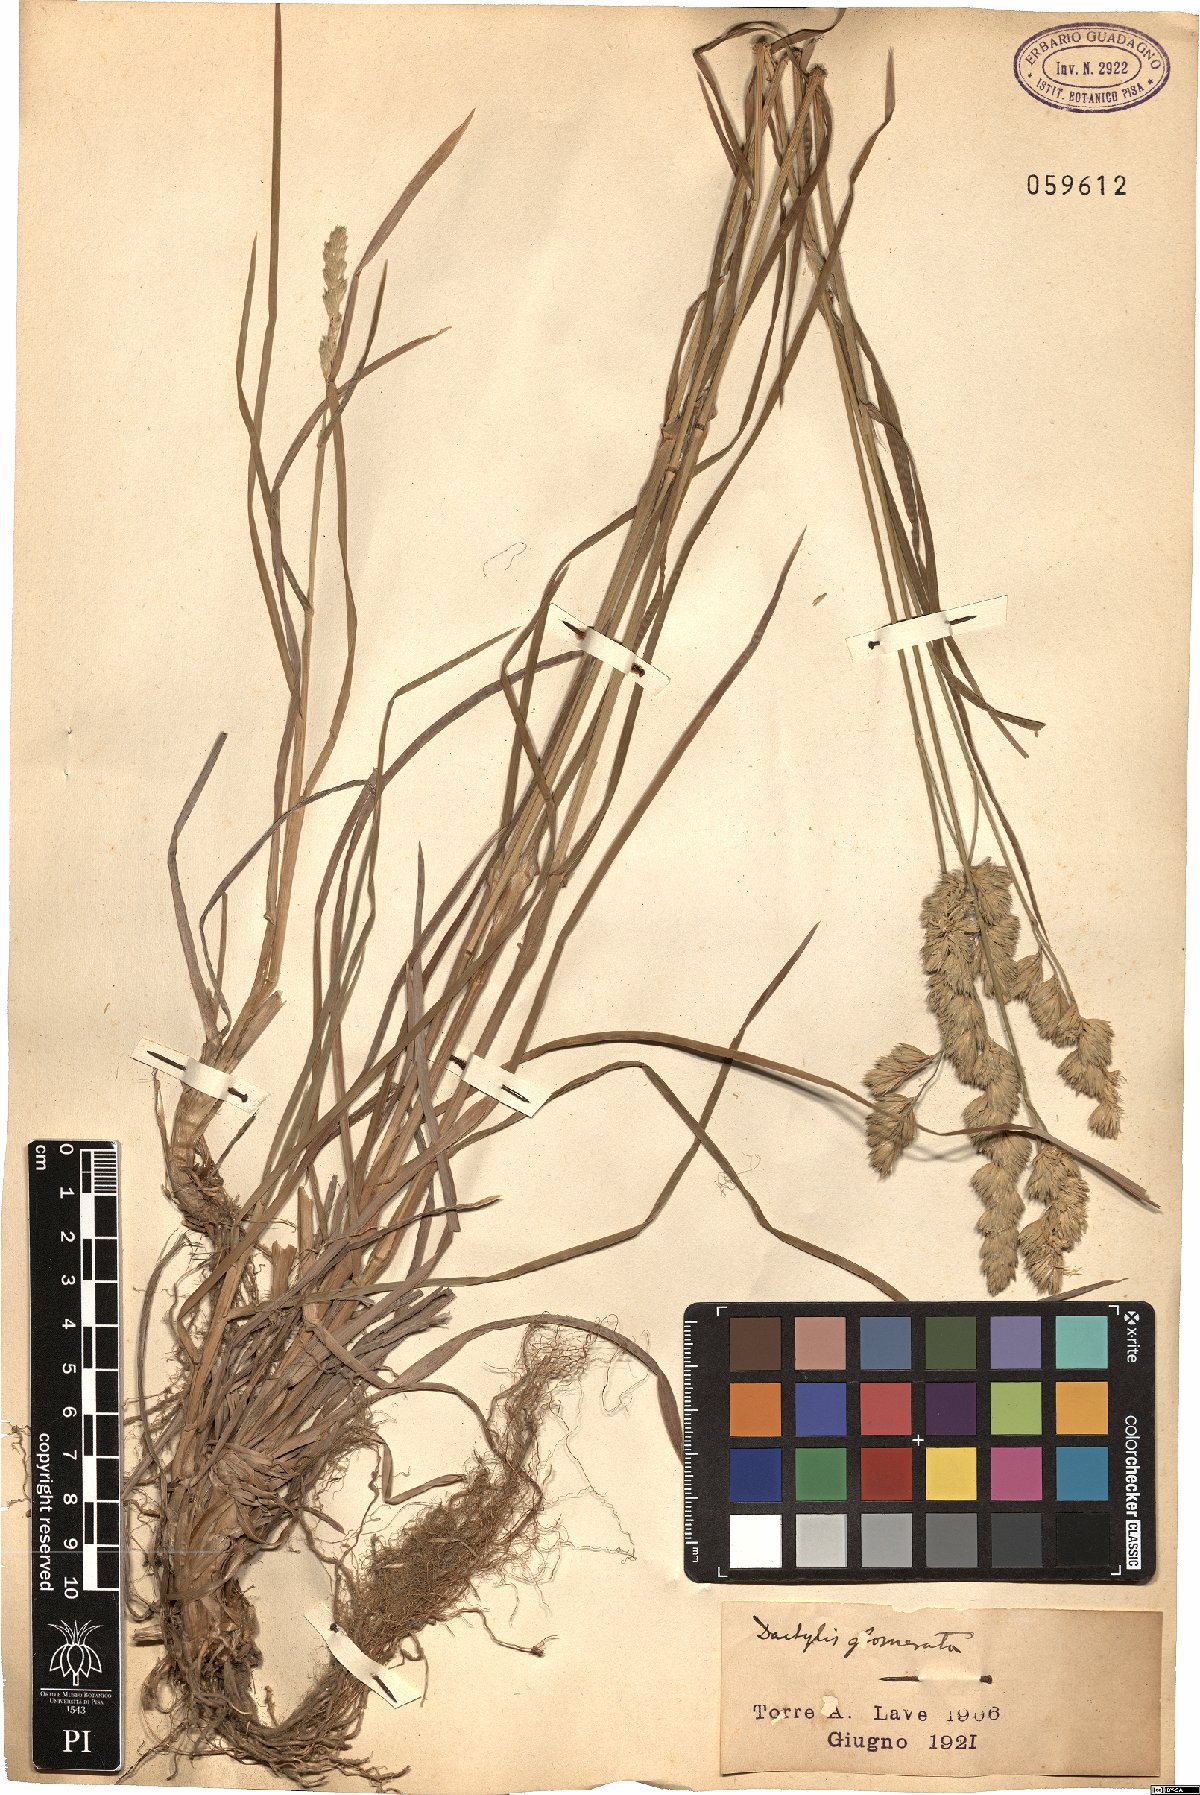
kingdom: Plantae
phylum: Tracheophyta
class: Liliopsida
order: Poales
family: Poaceae
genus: Dactylis
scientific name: Dactylis glomerata
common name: Orchardgrass
